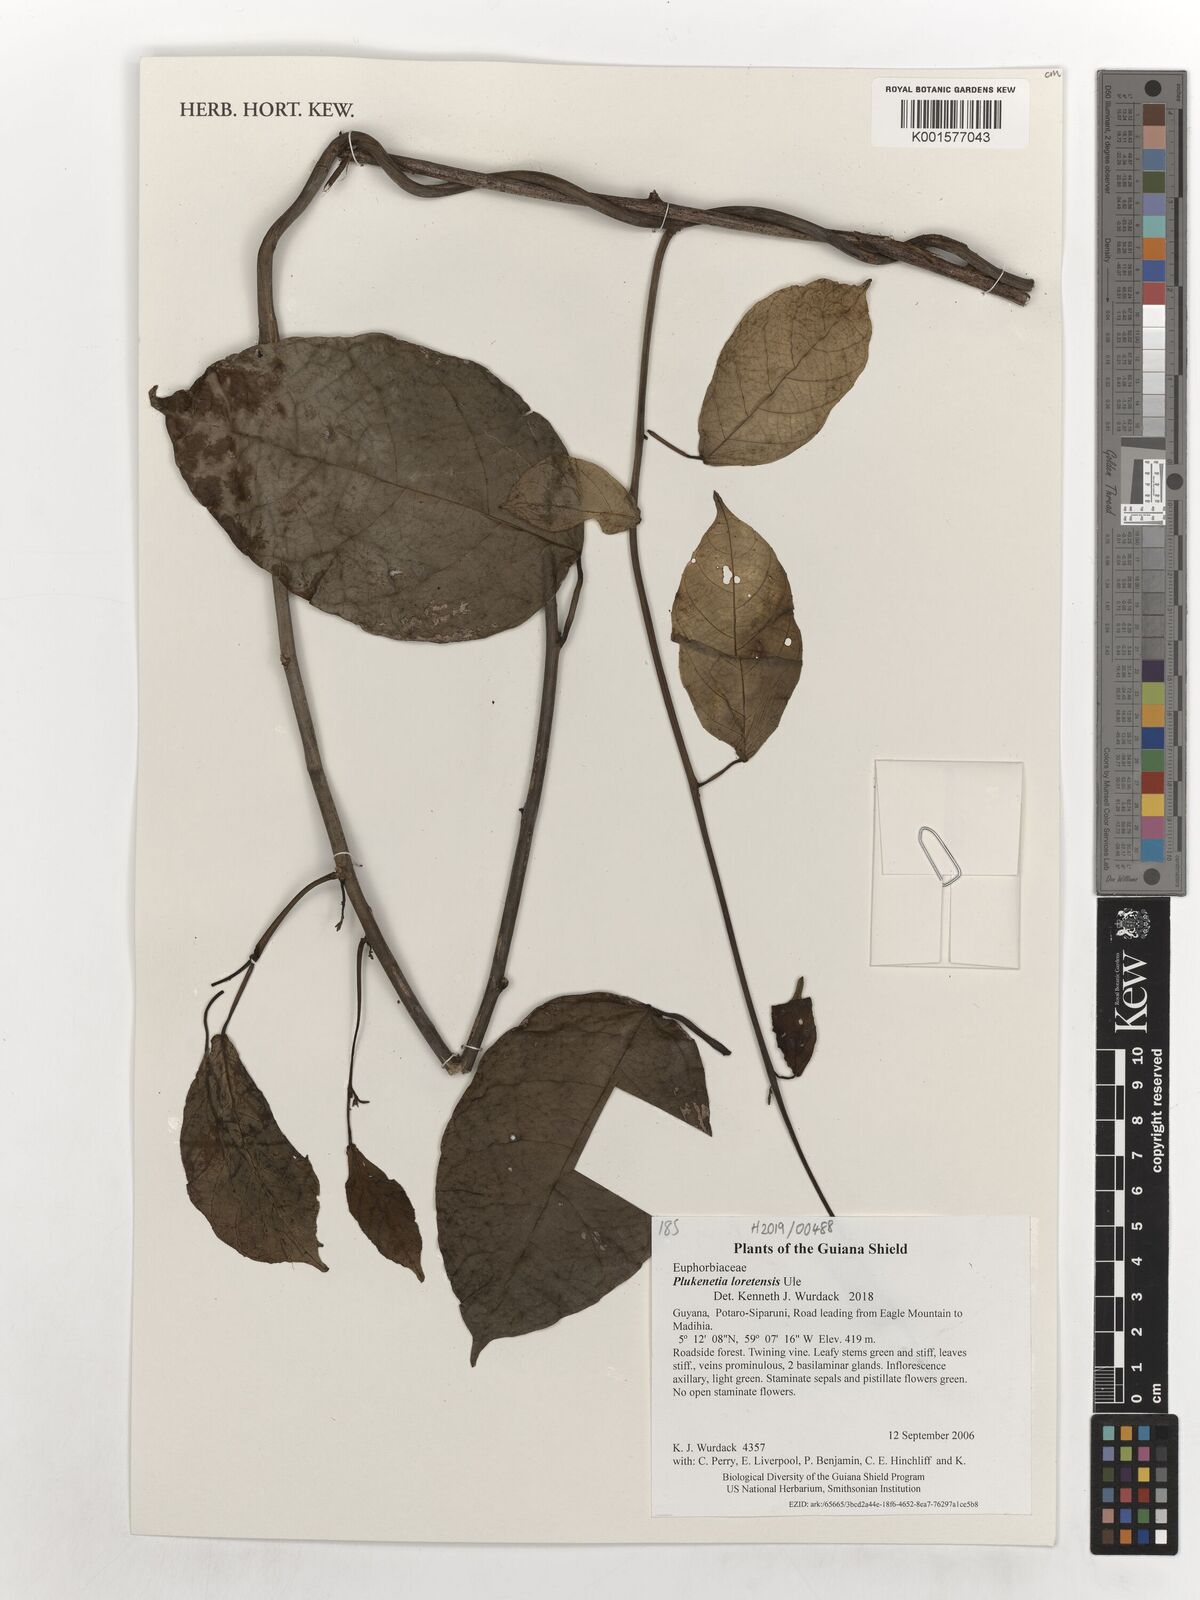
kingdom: Plantae
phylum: Tracheophyta
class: Magnoliopsida
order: Malpighiales
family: Euphorbiaceae
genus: Plukenetia
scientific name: Plukenetia loretensis
